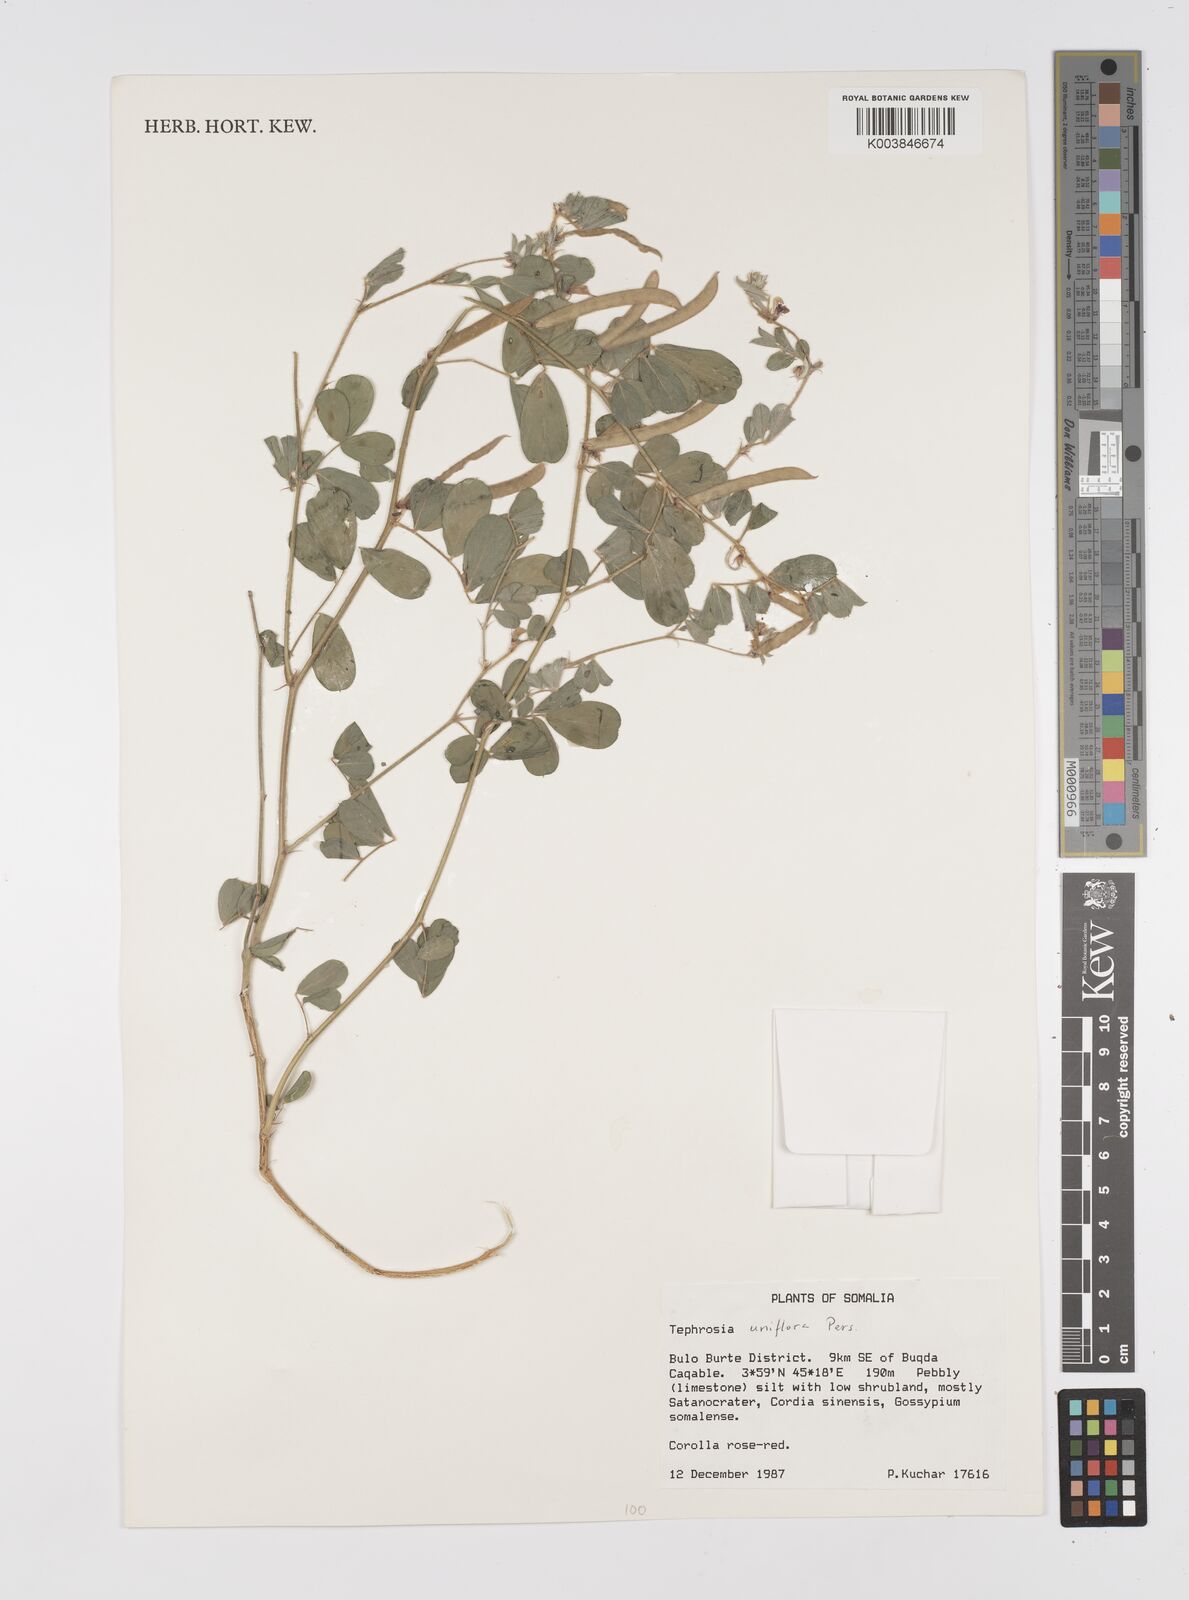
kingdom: Plantae
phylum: Tracheophyta
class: Magnoliopsida
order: Fabales
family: Fabaceae
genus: Tephrosia
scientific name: Tephrosia uniflora
